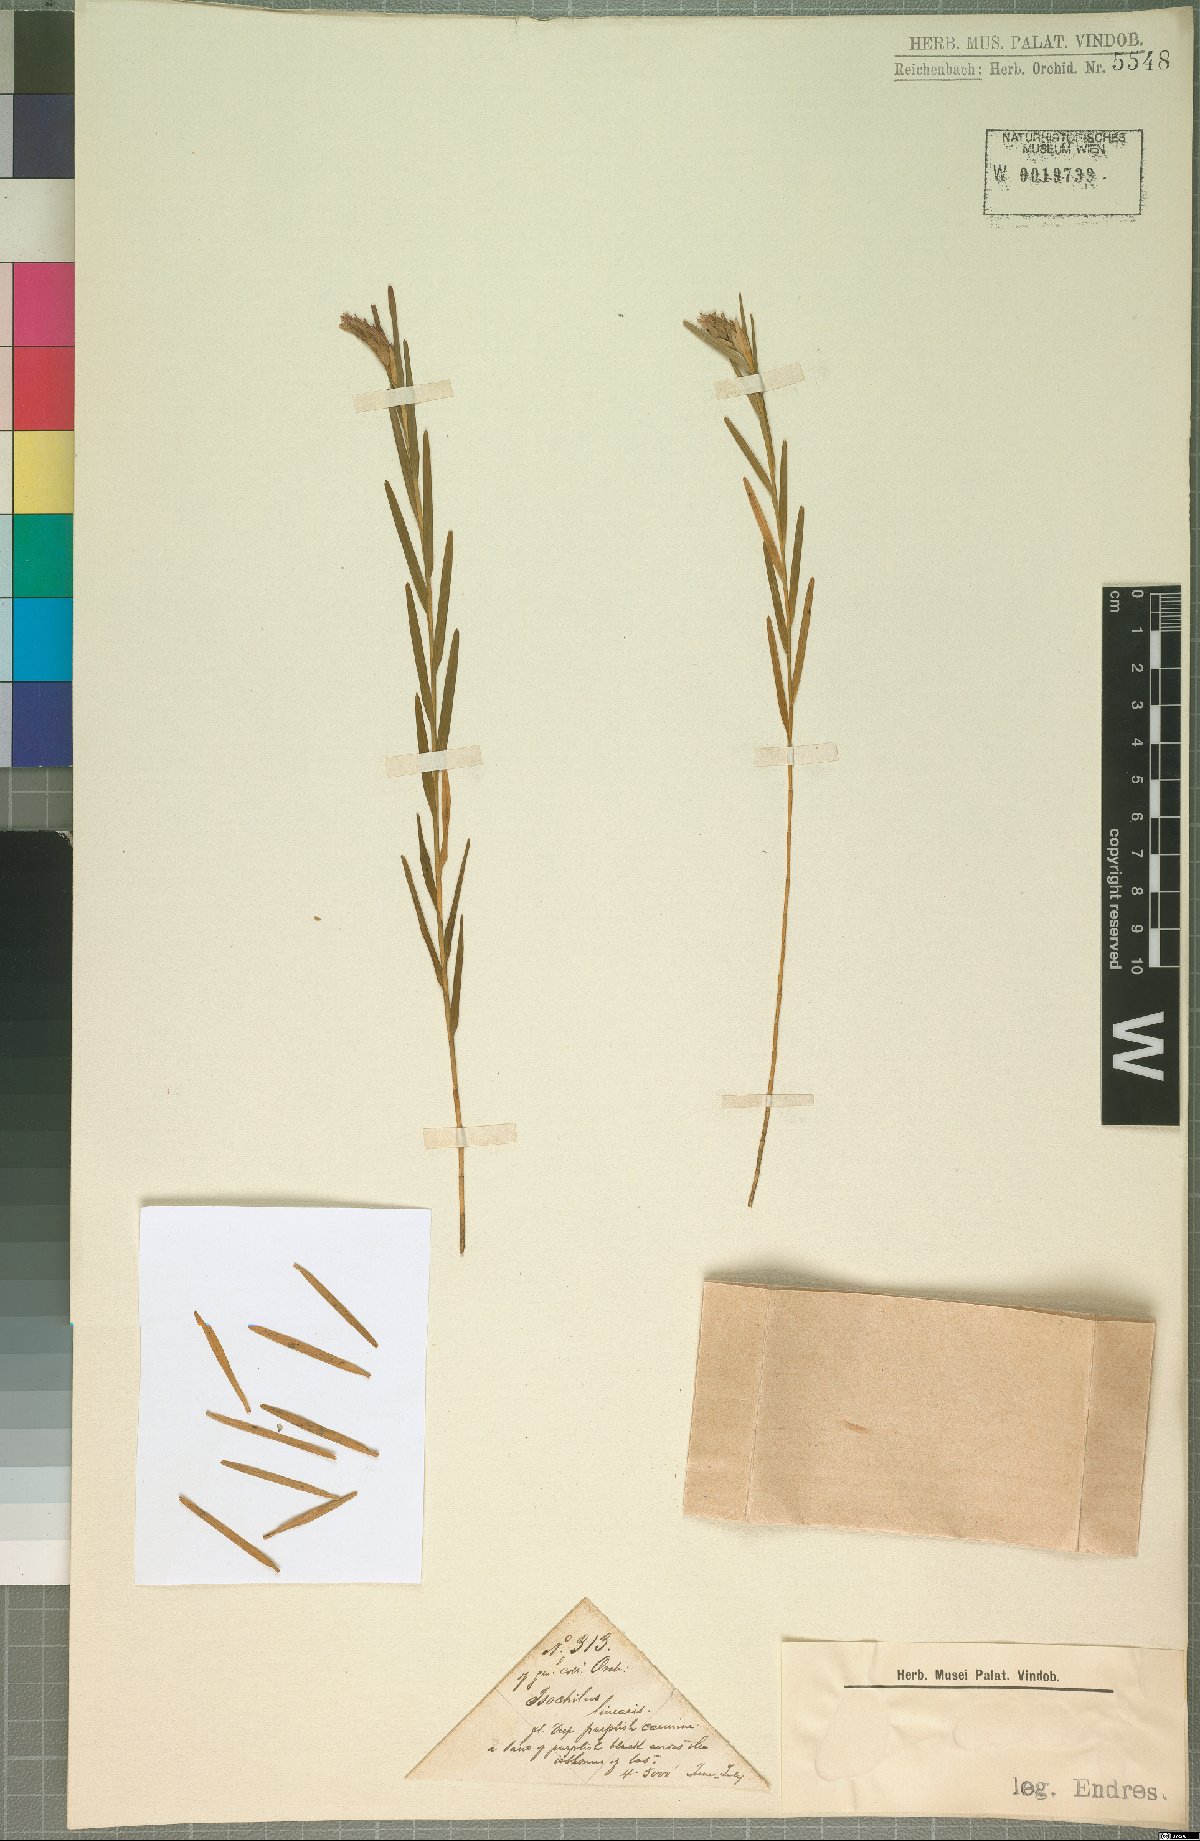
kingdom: Plantae
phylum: Tracheophyta
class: Liliopsida
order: Asparagales
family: Orchidaceae
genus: Isochilus
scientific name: Isochilus linearis
